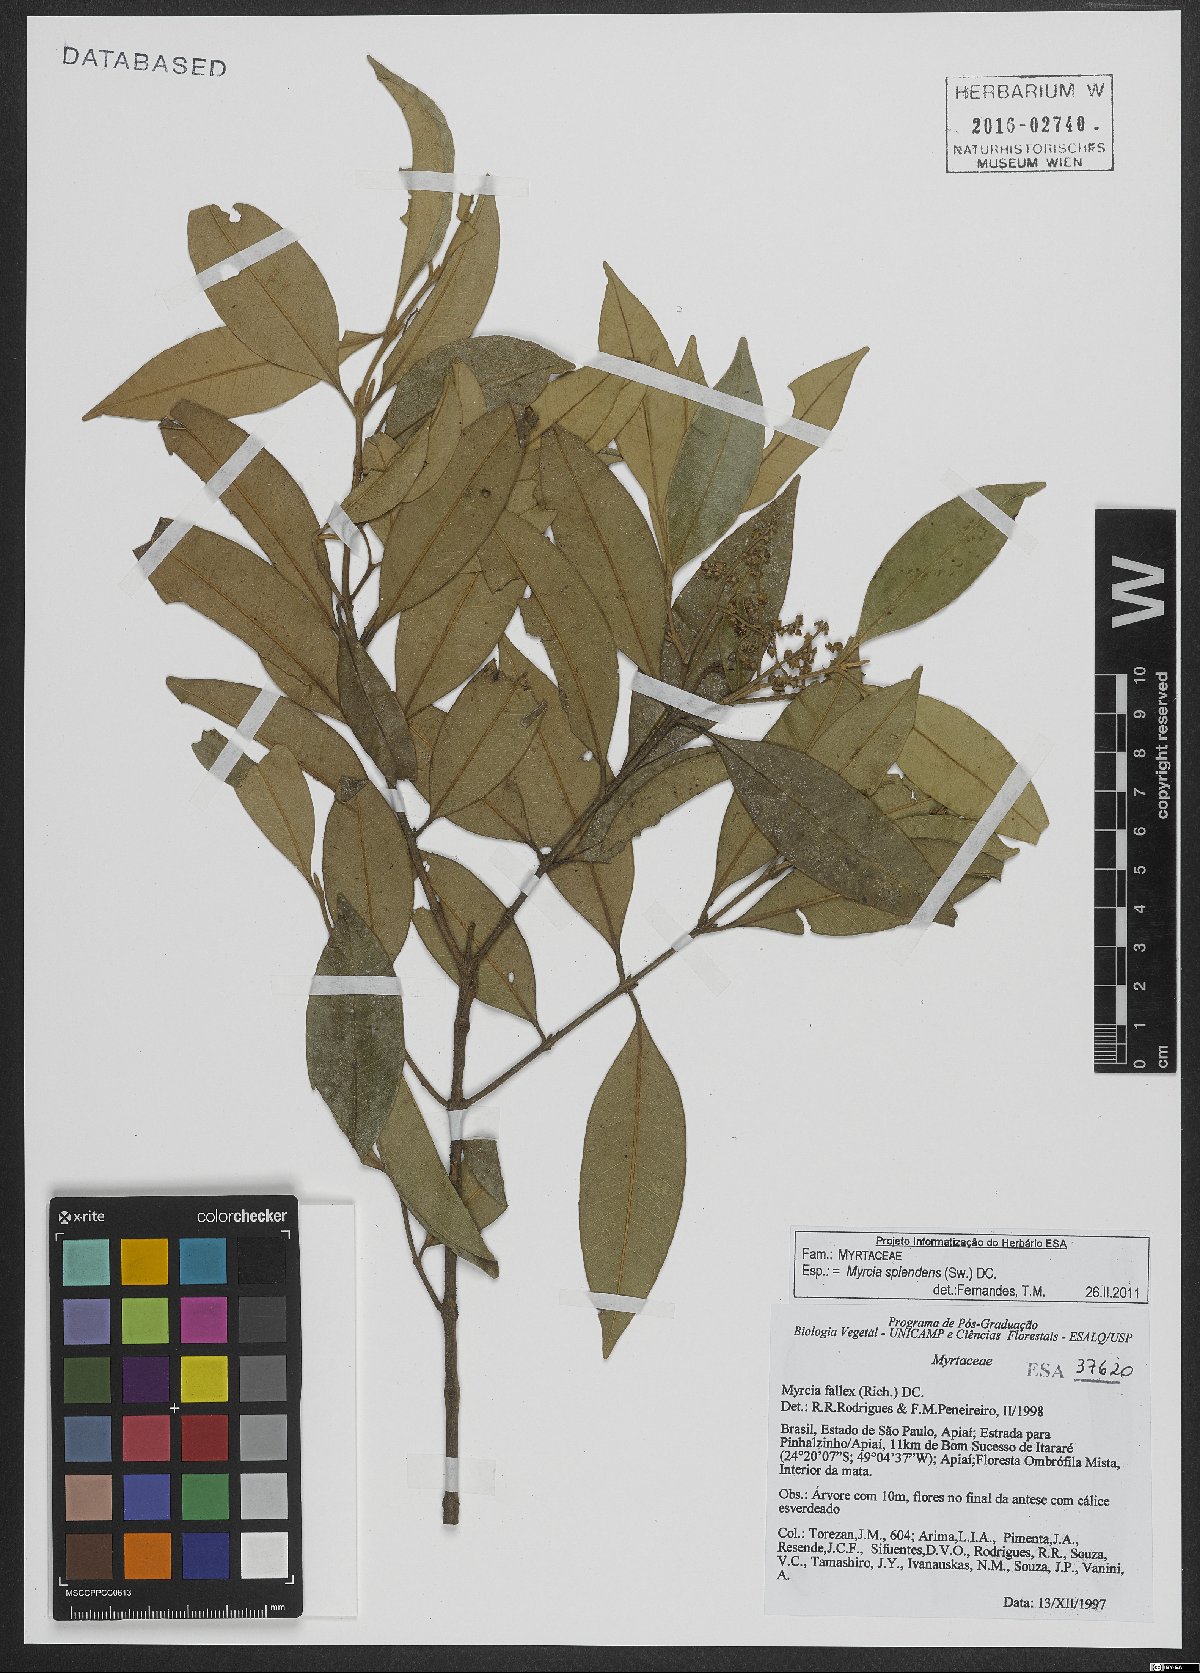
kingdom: Plantae
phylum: Tracheophyta
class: Magnoliopsida
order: Myrtales
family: Myrtaceae
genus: Myrcia
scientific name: Myrcia splendens
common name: Surinam cherry
